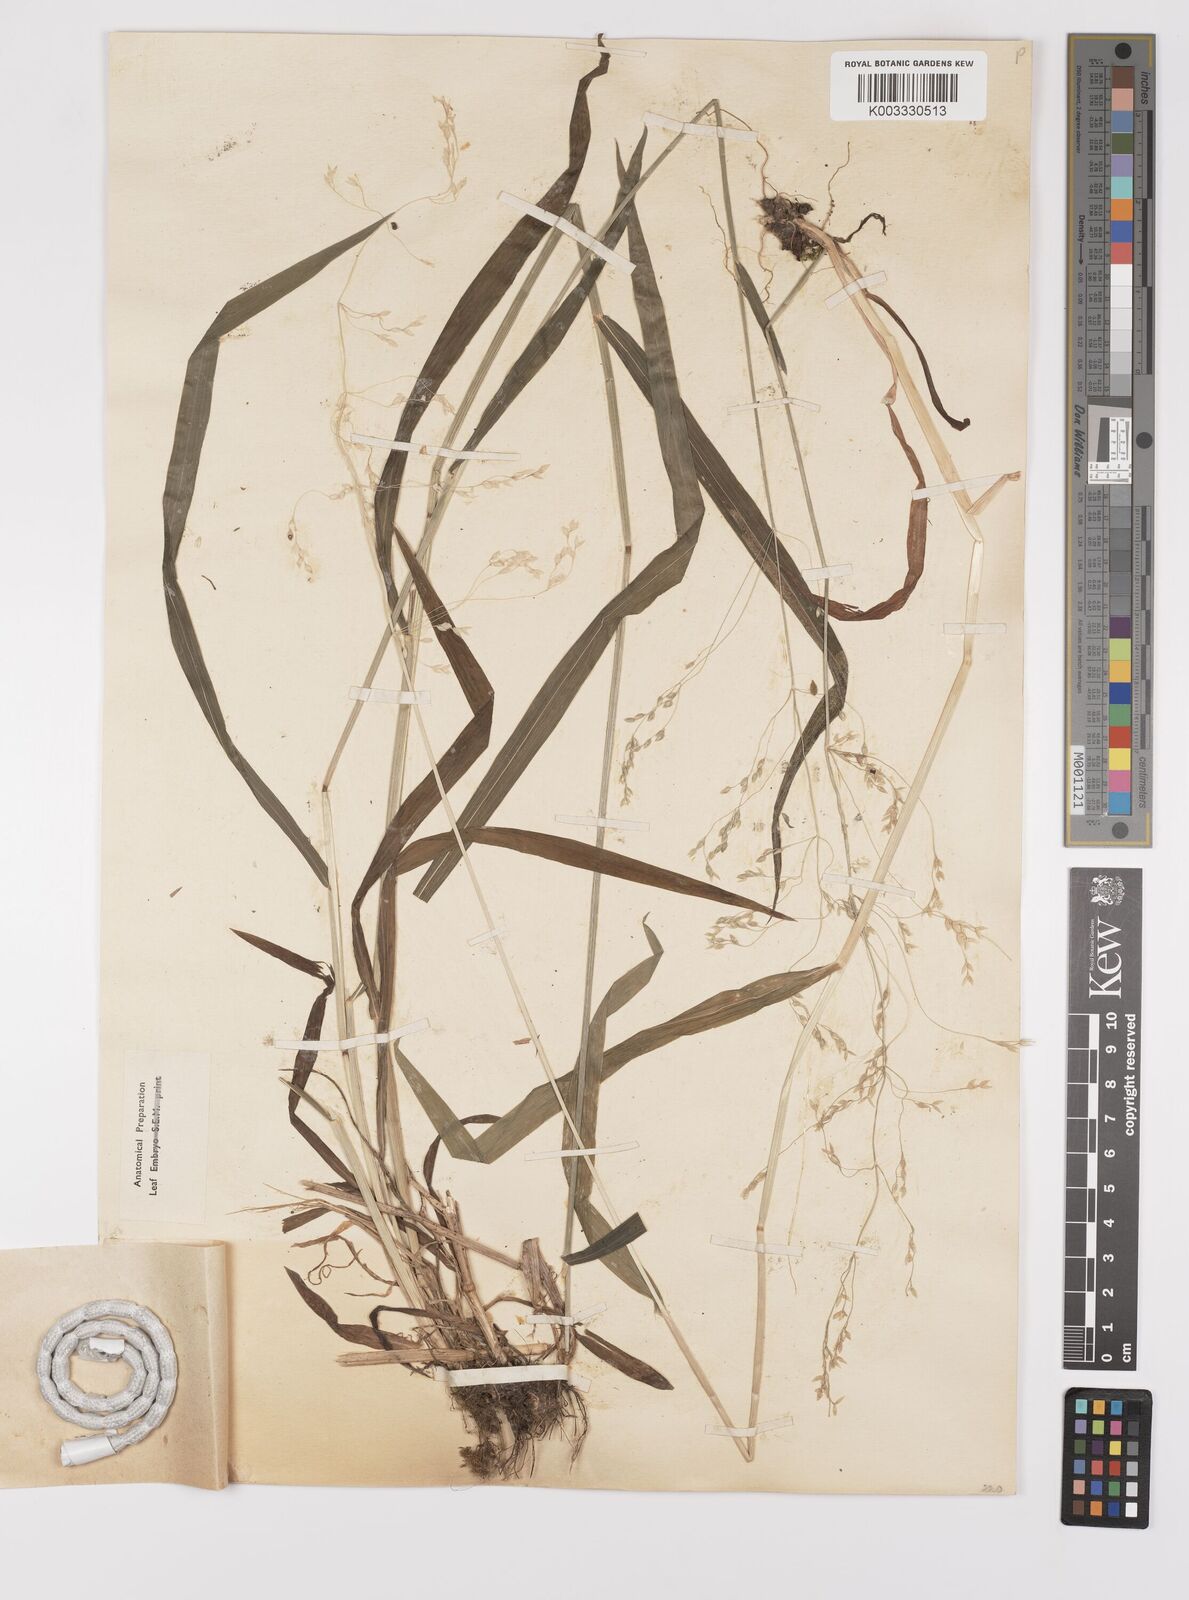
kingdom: Plantae
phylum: Tracheophyta
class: Liliopsida
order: Poales
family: Poaceae
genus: Milium
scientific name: Milium
